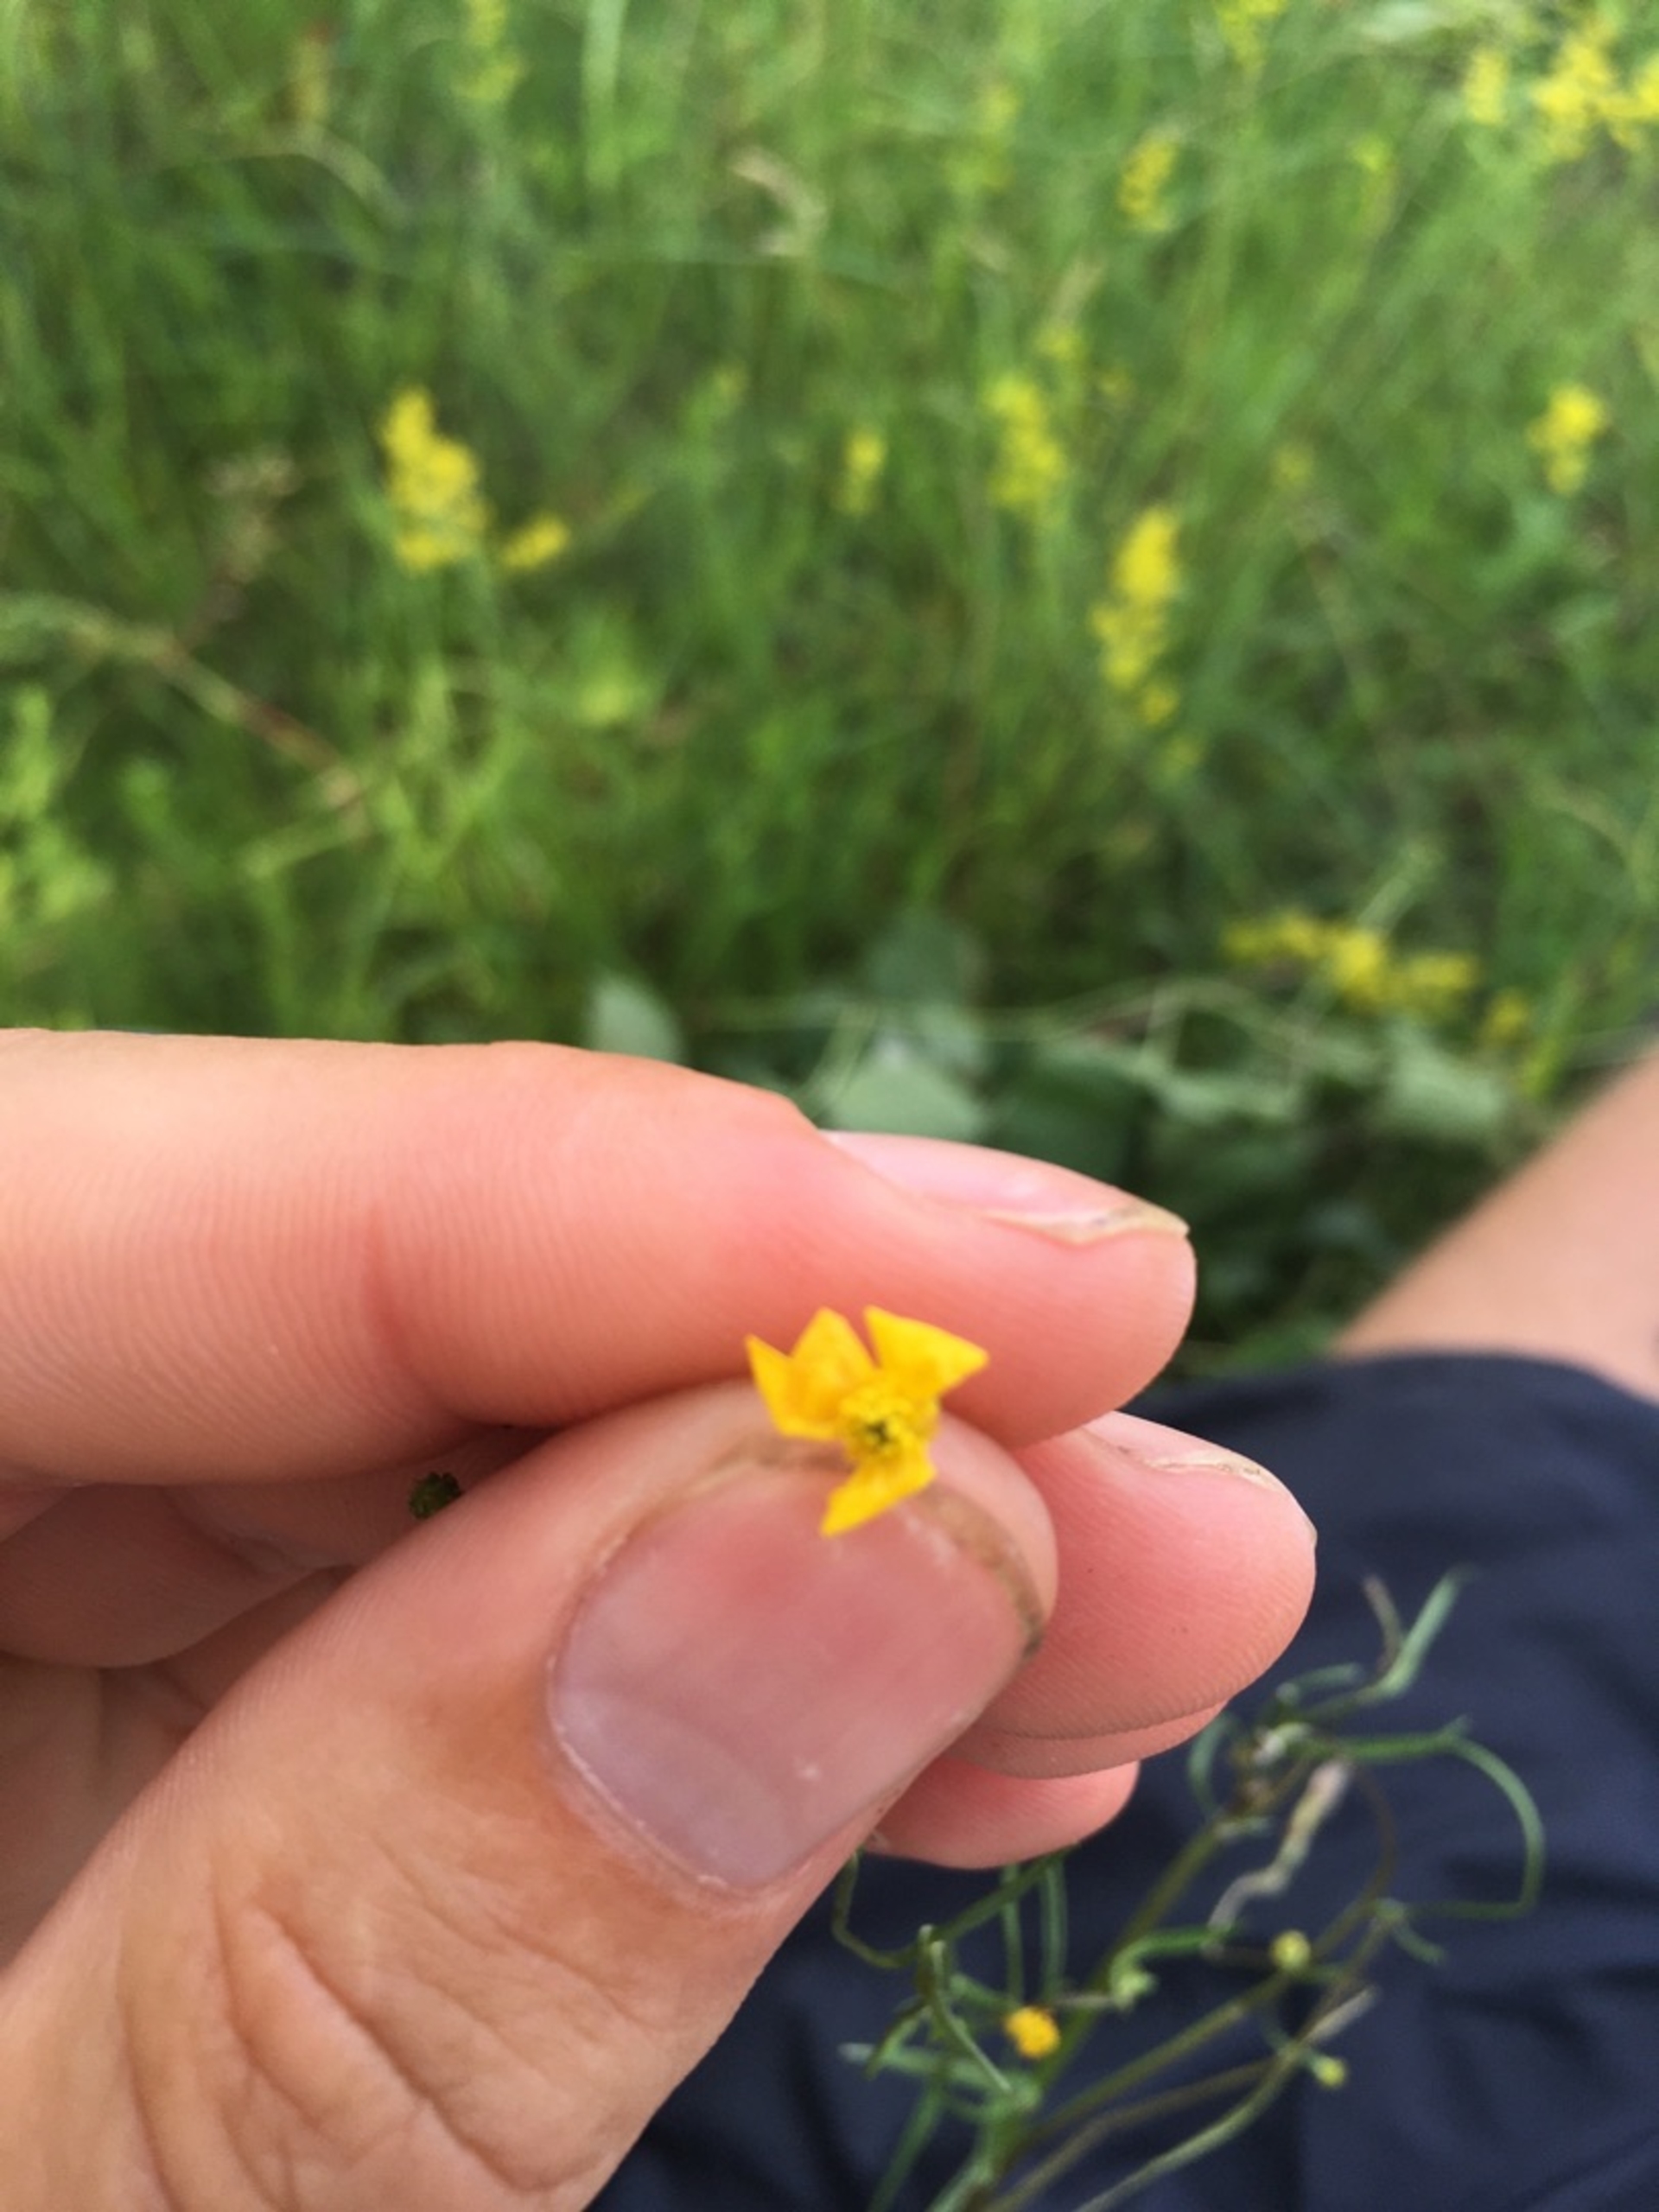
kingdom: Plantae
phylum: Tracheophyta
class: Magnoliopsida
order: Ranunculales
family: Ranunculaceae
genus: Ranunculus
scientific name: Ranunculus flammula
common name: Kær-ranunkel
